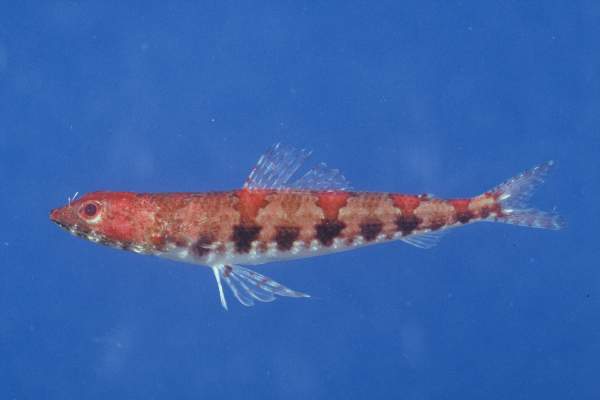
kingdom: Animalia
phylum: Chordata
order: Aulopiformes
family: Synodontidae
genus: Synodus
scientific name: Synodus binotatus
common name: Twospot lizardfish
